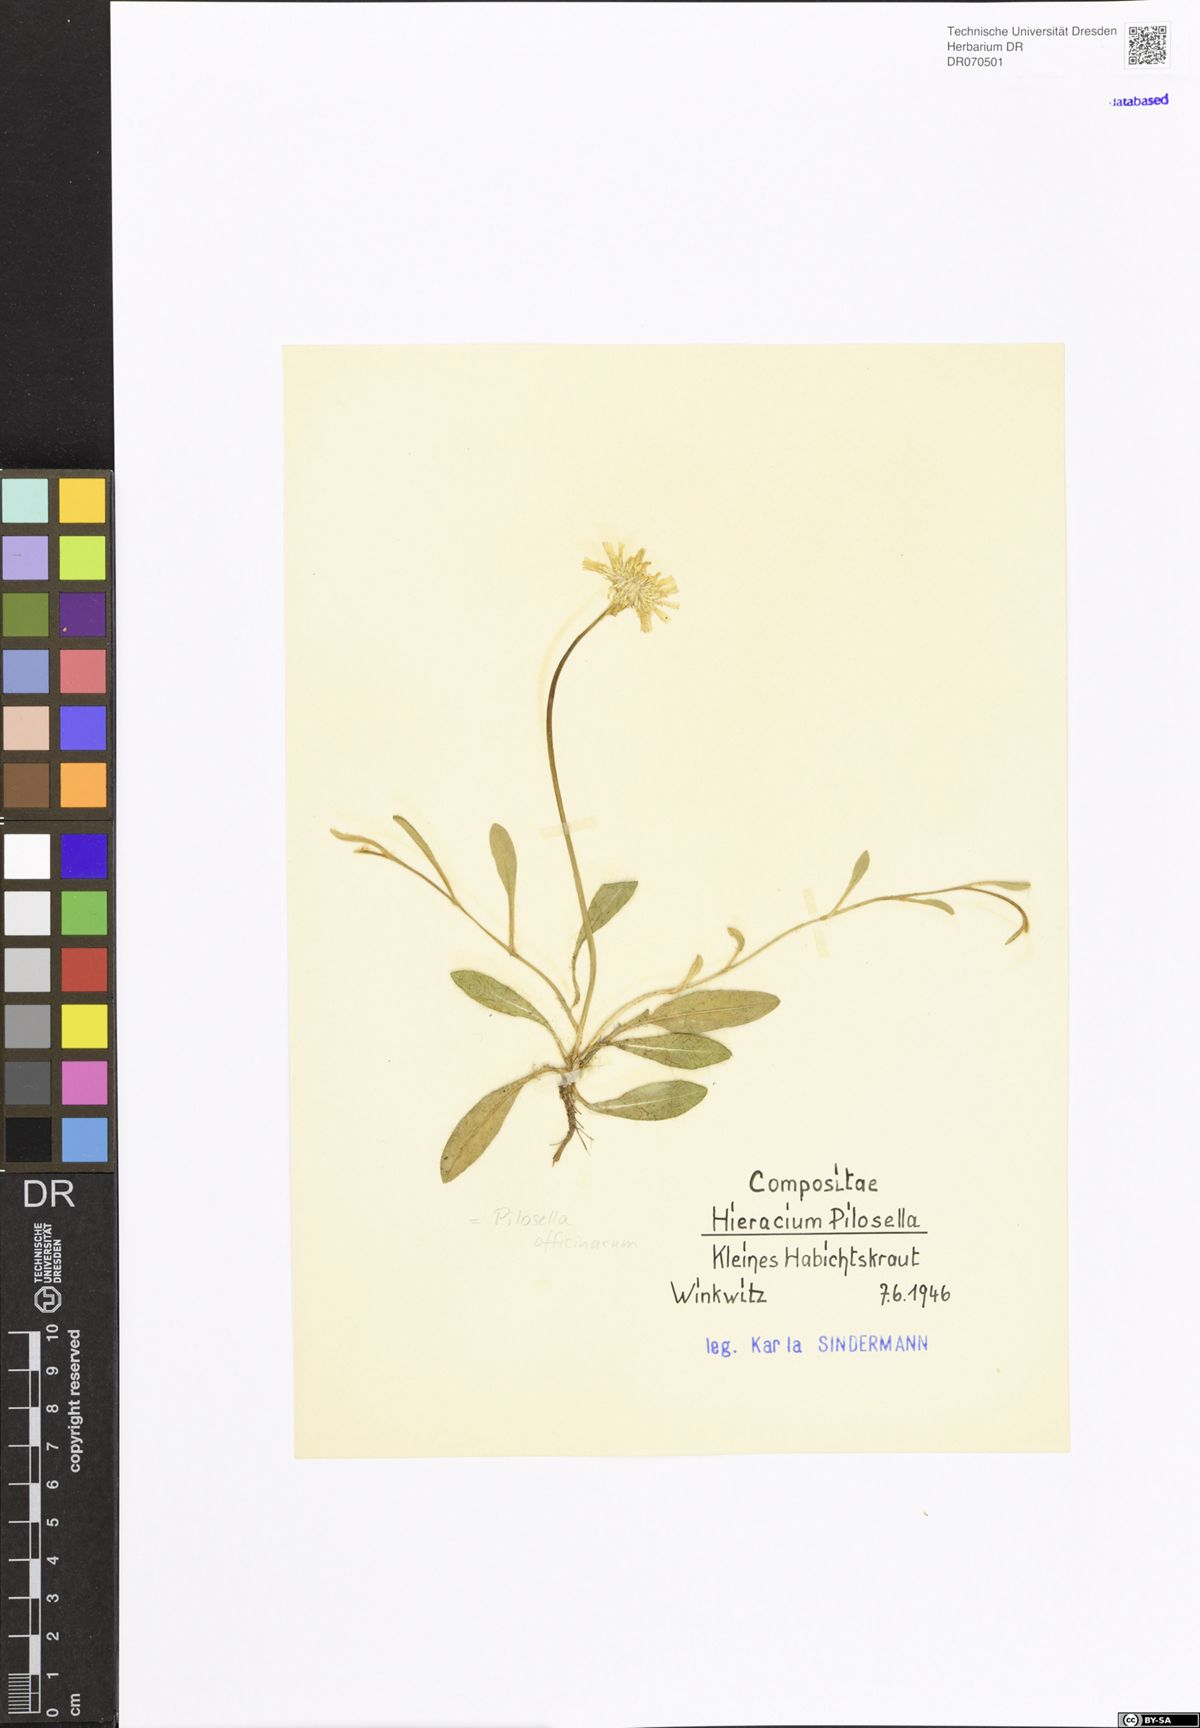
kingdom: Plantae
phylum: Tracheophyta
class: Magnoliopsida
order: Asterales
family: Asteraceae
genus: Pilosella
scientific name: Pilosella officinarum
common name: Mouse-ear hawkweed
